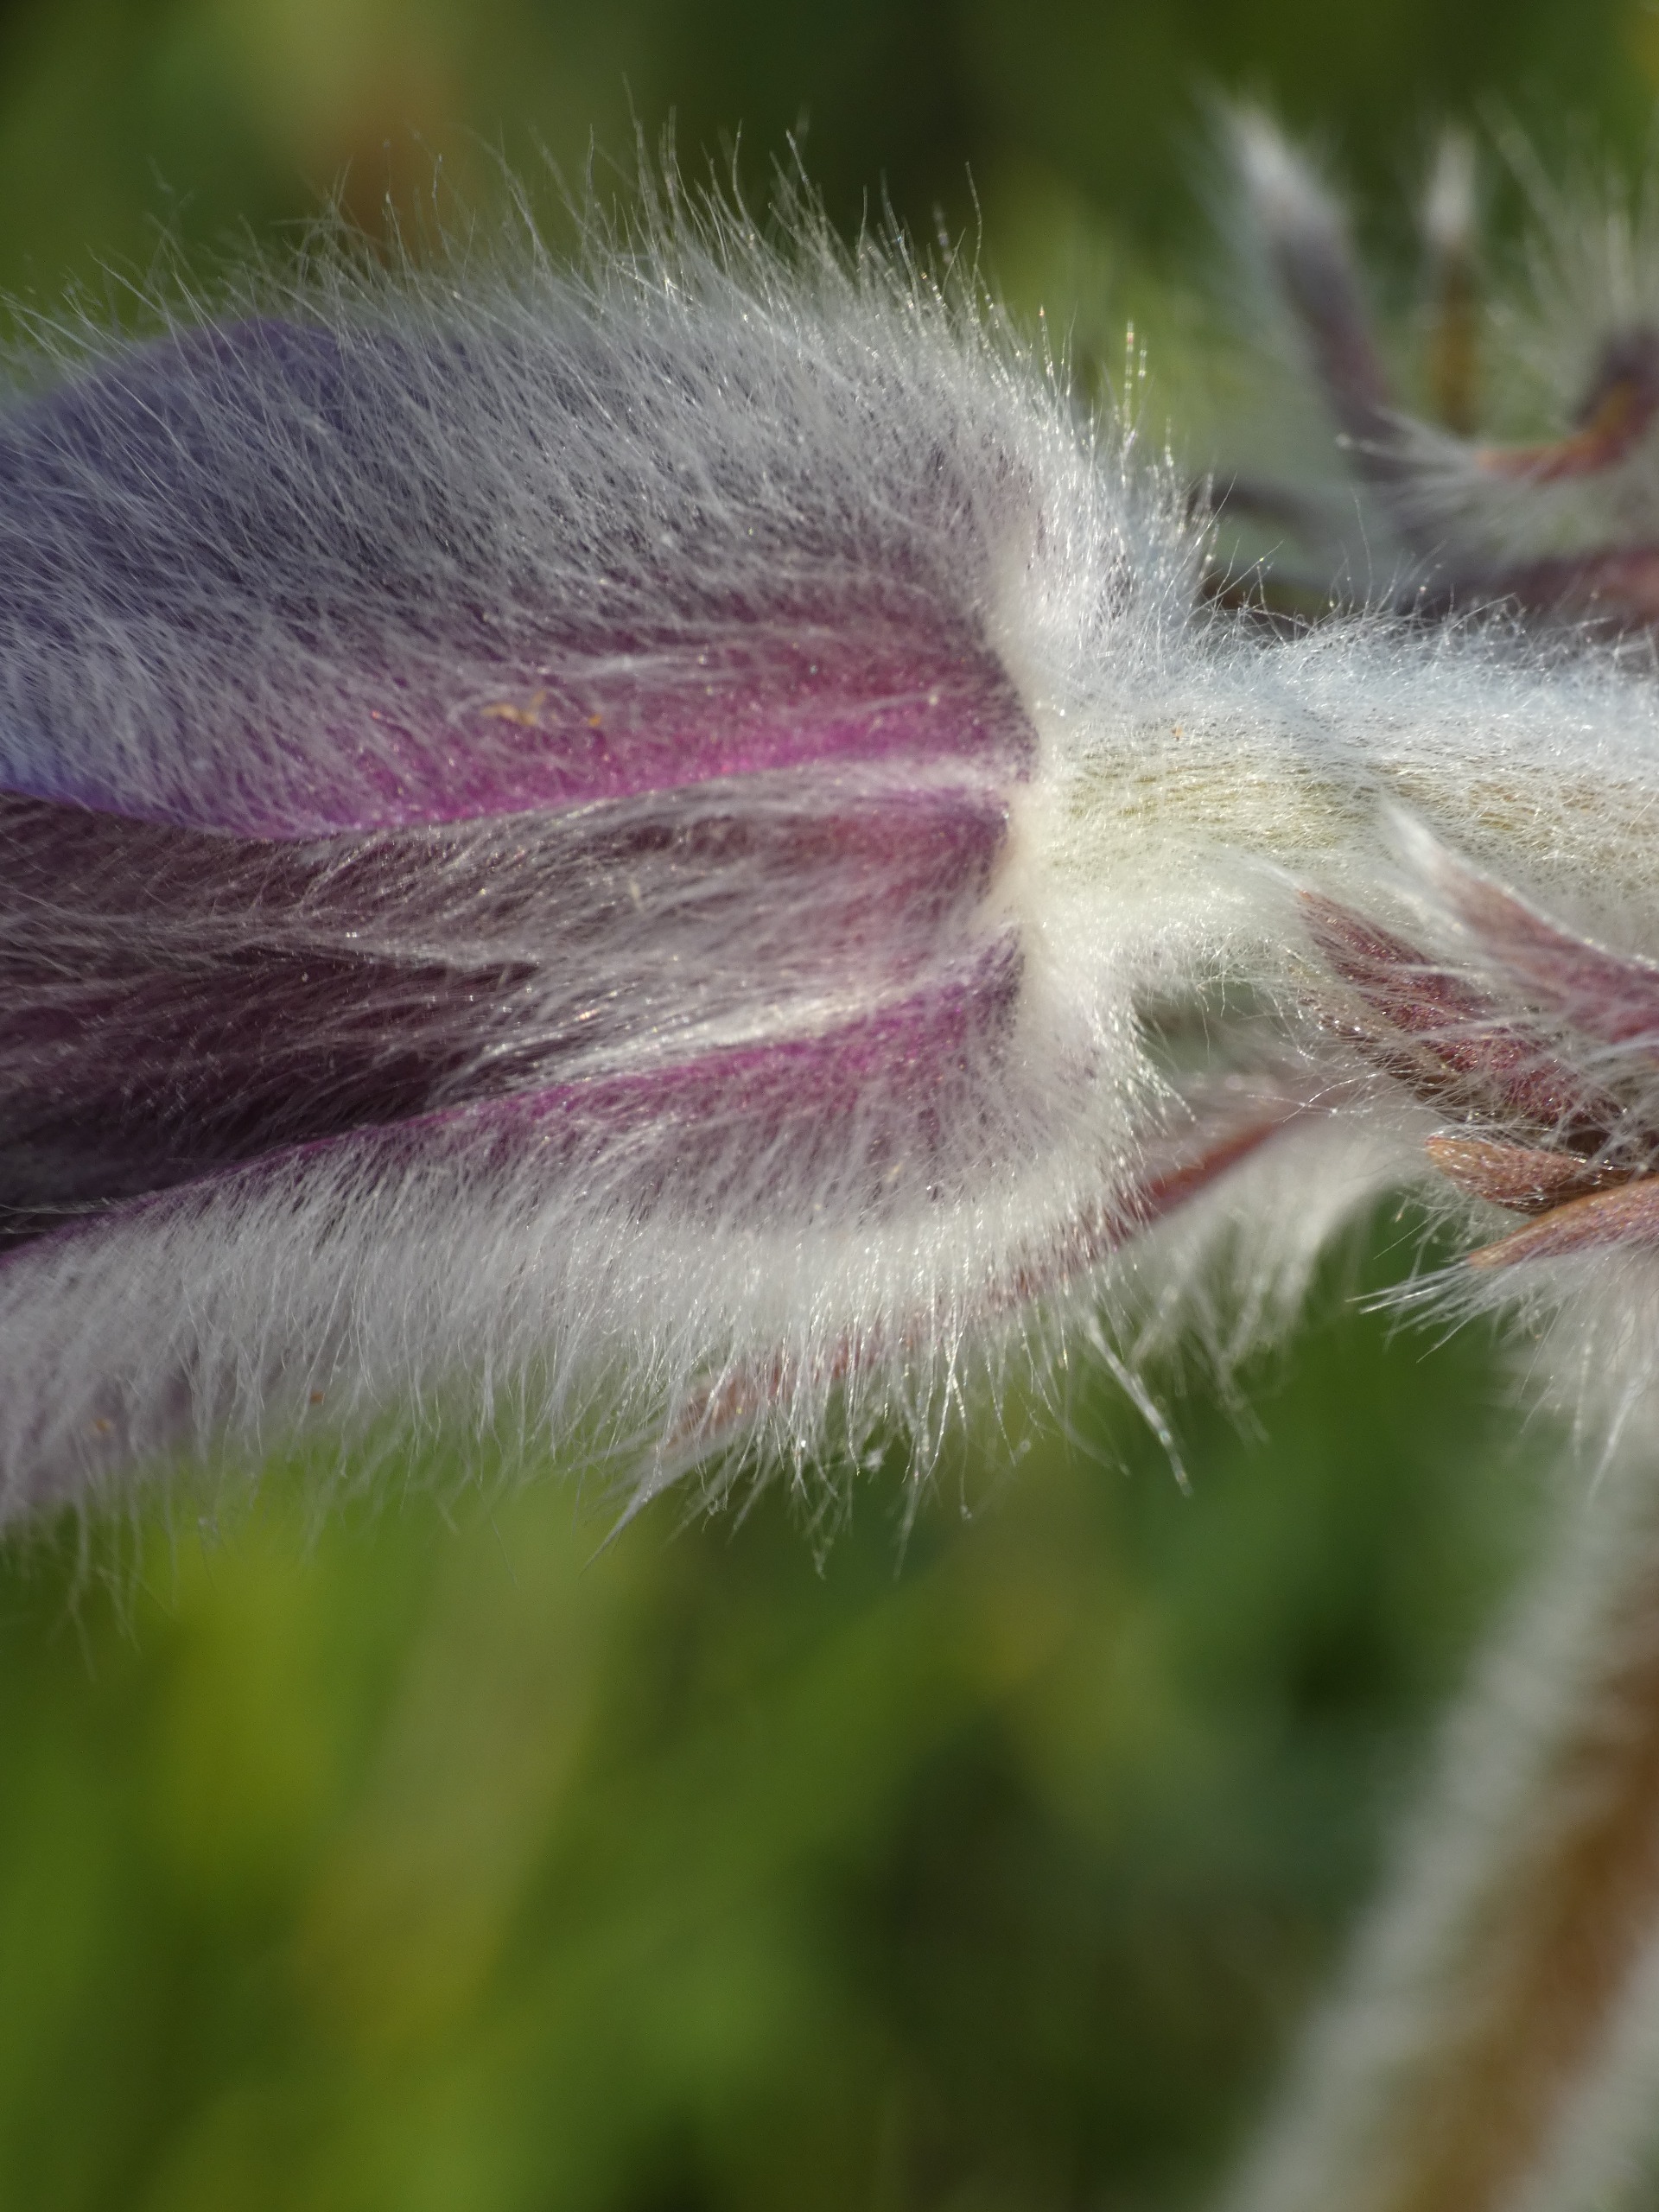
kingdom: Plantae
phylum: Tracheophyta
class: Magnoliopsida
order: Ranunculales
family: Ranunculaceae
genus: Pulsatilla
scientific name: Pulsatilla pratensis
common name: Nikkende kobjælde
